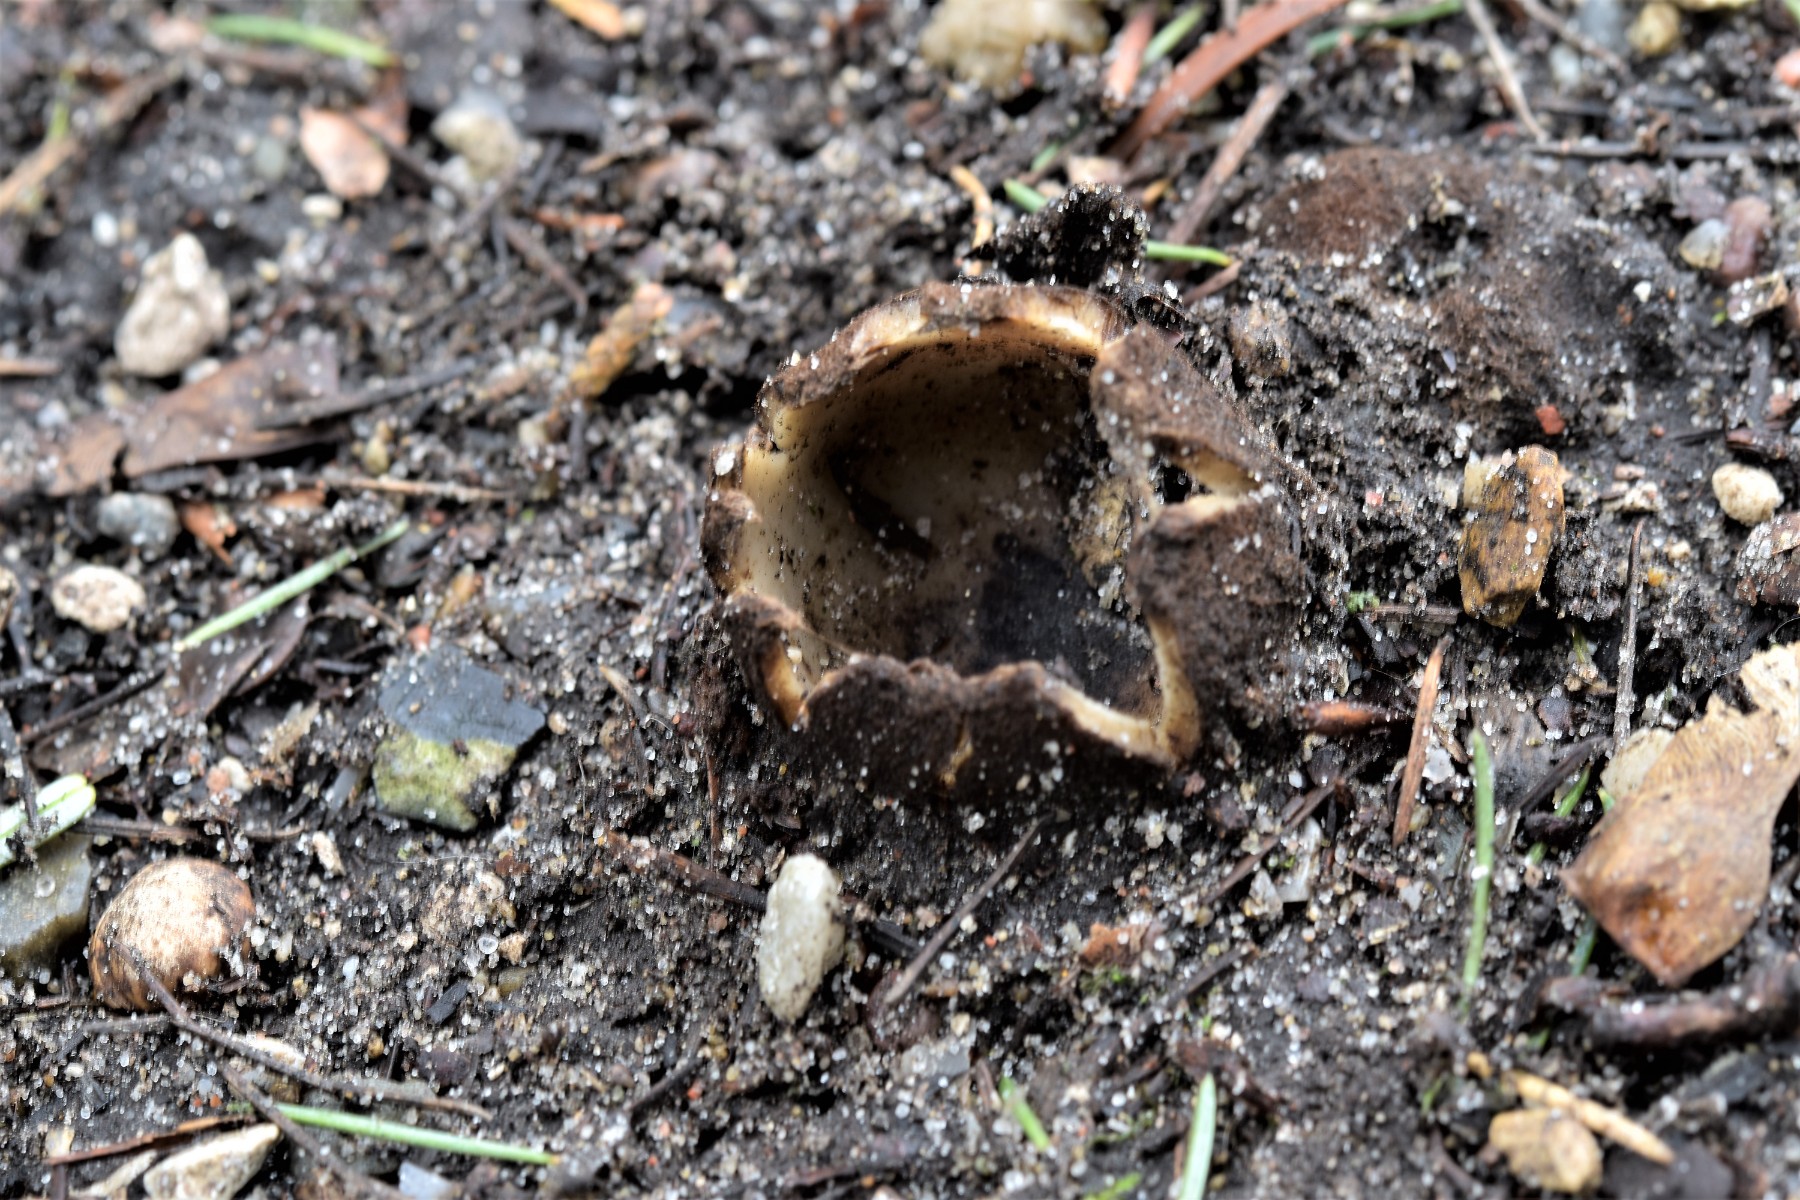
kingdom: Fungi
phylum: Ascomycota
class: Pezizomycetes
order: Pezizales
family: Pyronemataceae
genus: Geopora
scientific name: Geopora sumneriana
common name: vår-jordbæger
